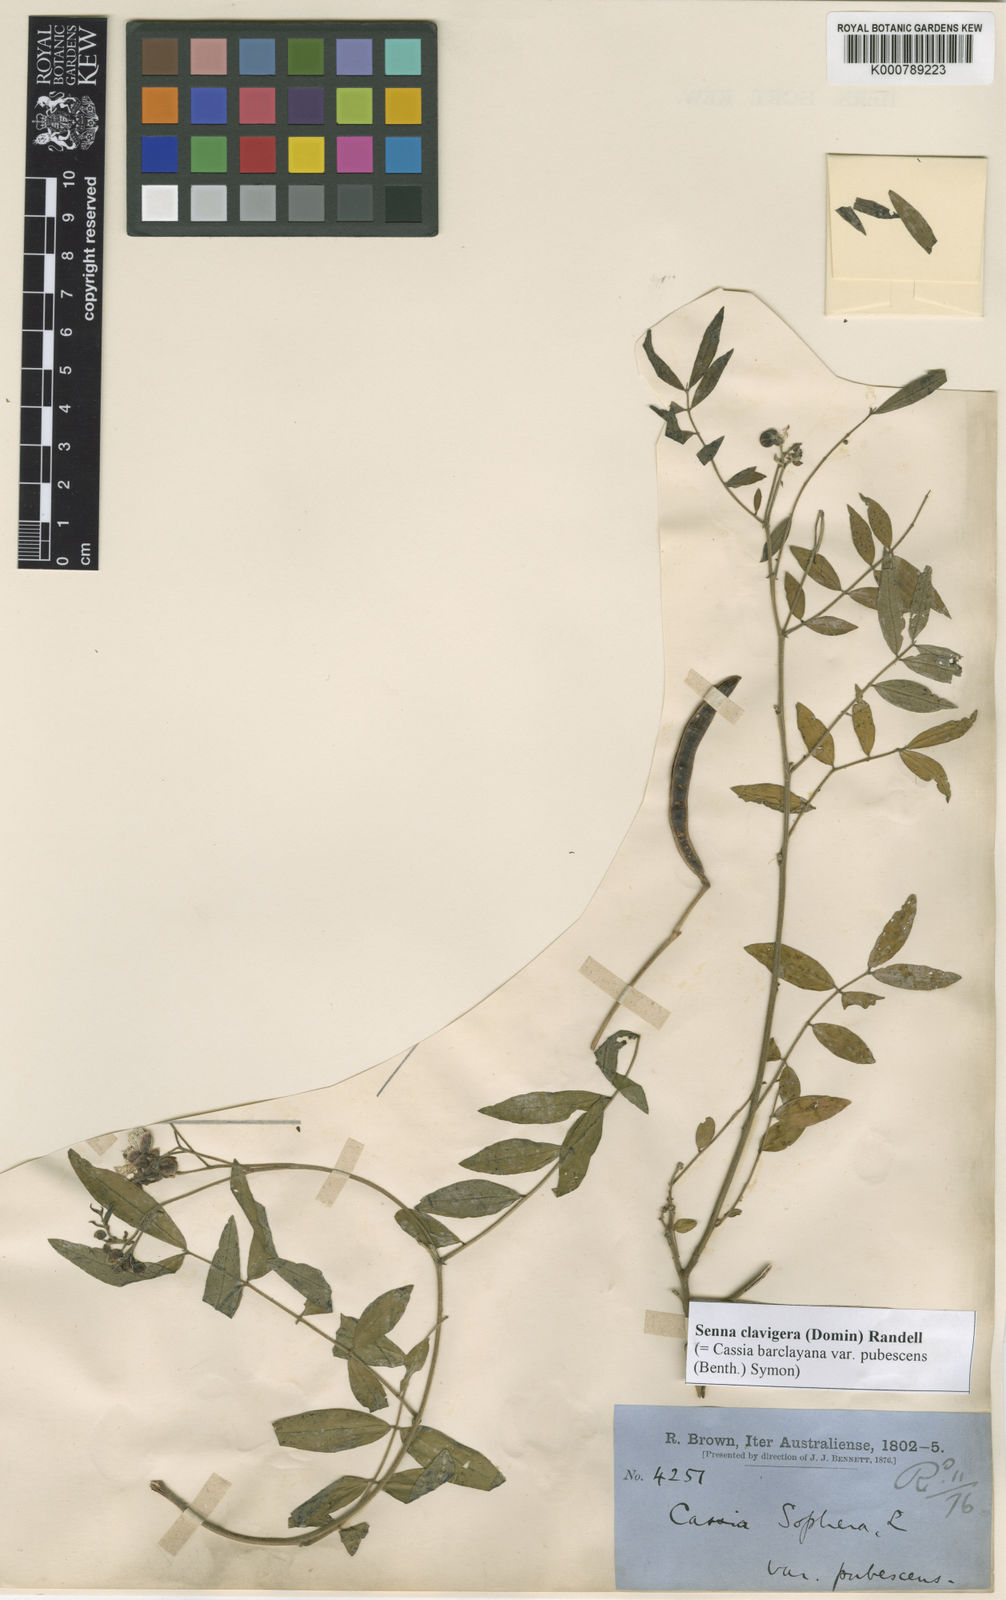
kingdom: Plantae
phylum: Tracheophyta
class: Magnoliopsida
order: Fabales
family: Fabaceae
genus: Senna
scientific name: Senna clavigera
